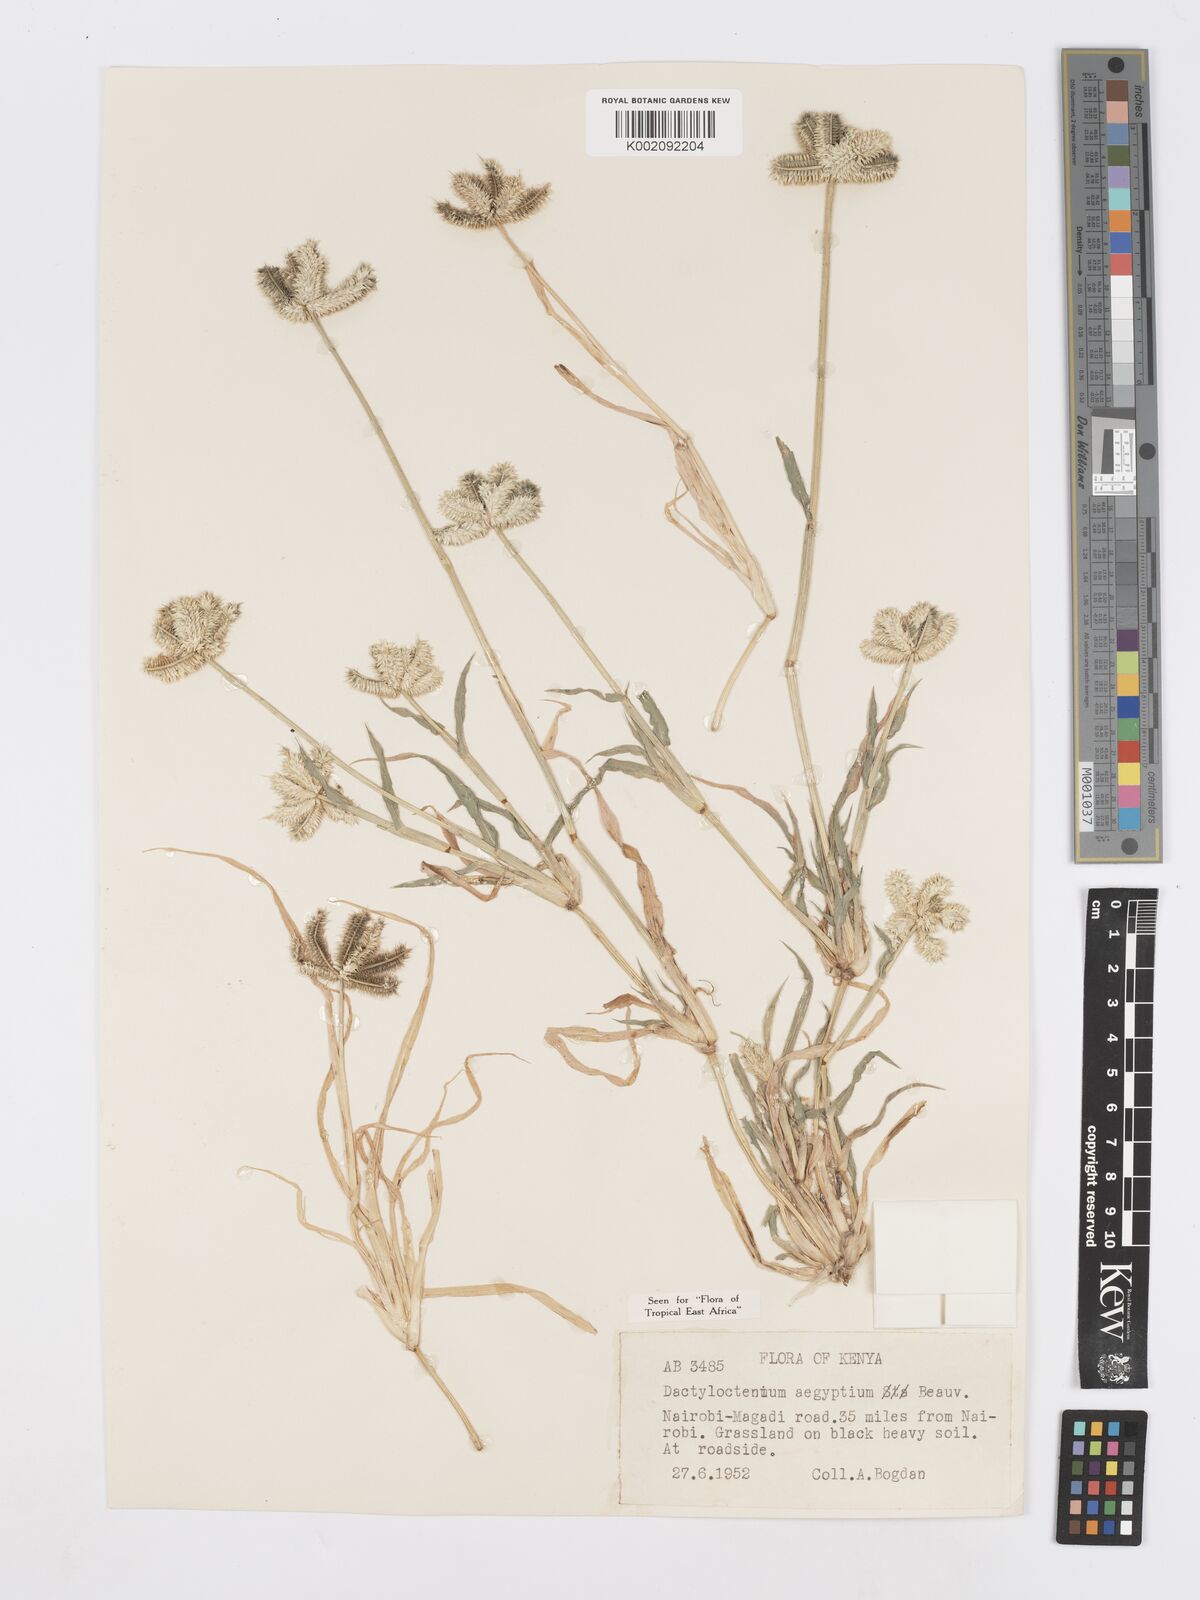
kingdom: Plantae
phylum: Tracheophyta
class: Liliopsida
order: Poales
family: Poaceae
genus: Dactyloctenium
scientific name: Dactyloctenium aegyptium
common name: Egyptian grass
